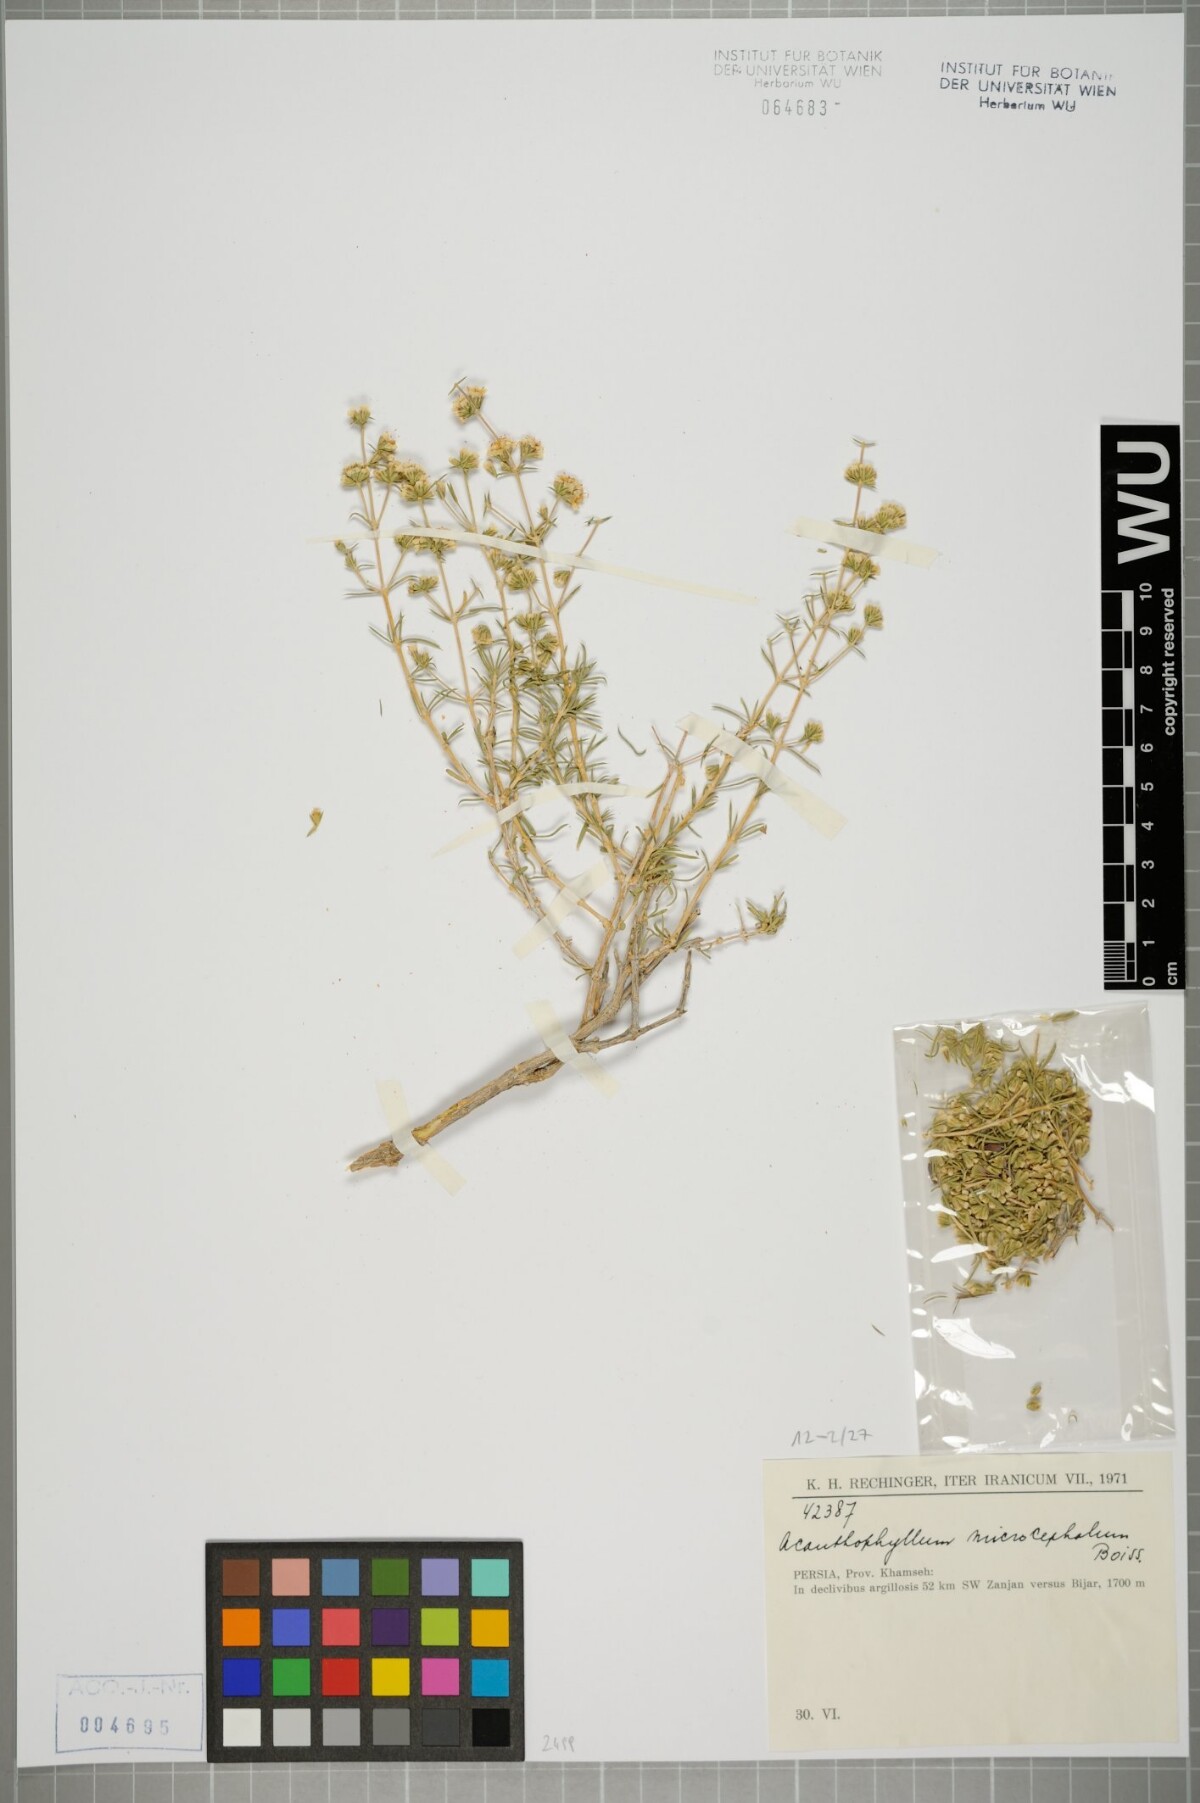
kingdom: Plantae
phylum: Tracheophyta
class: Magnoliopsida
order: Caryophyllales
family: Caryophyllaceae
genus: Acanthophyllum
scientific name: Acanthophyllum microcephalum
